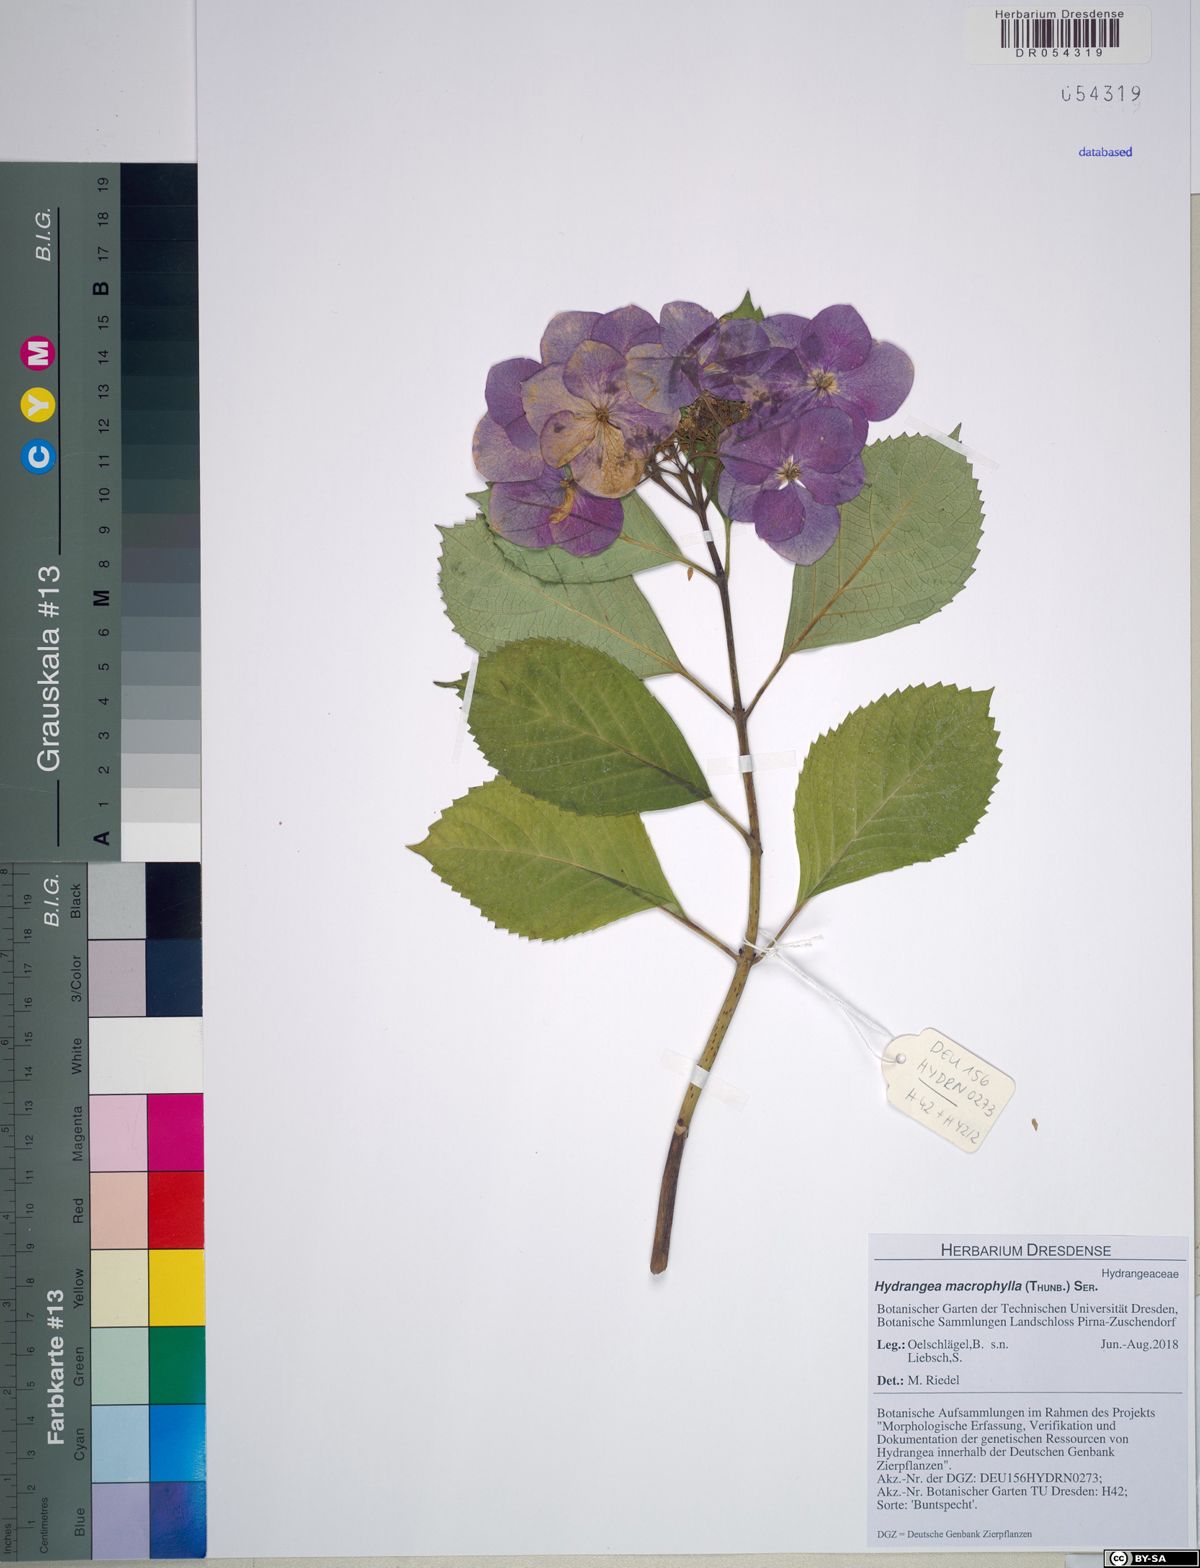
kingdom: Plantae
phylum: Tracheophyta
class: Magnoliopsida
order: Cornales
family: Hydrangeaceae
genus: Hydrangea
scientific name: Hydrangea macrophylla
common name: Hydrangea
